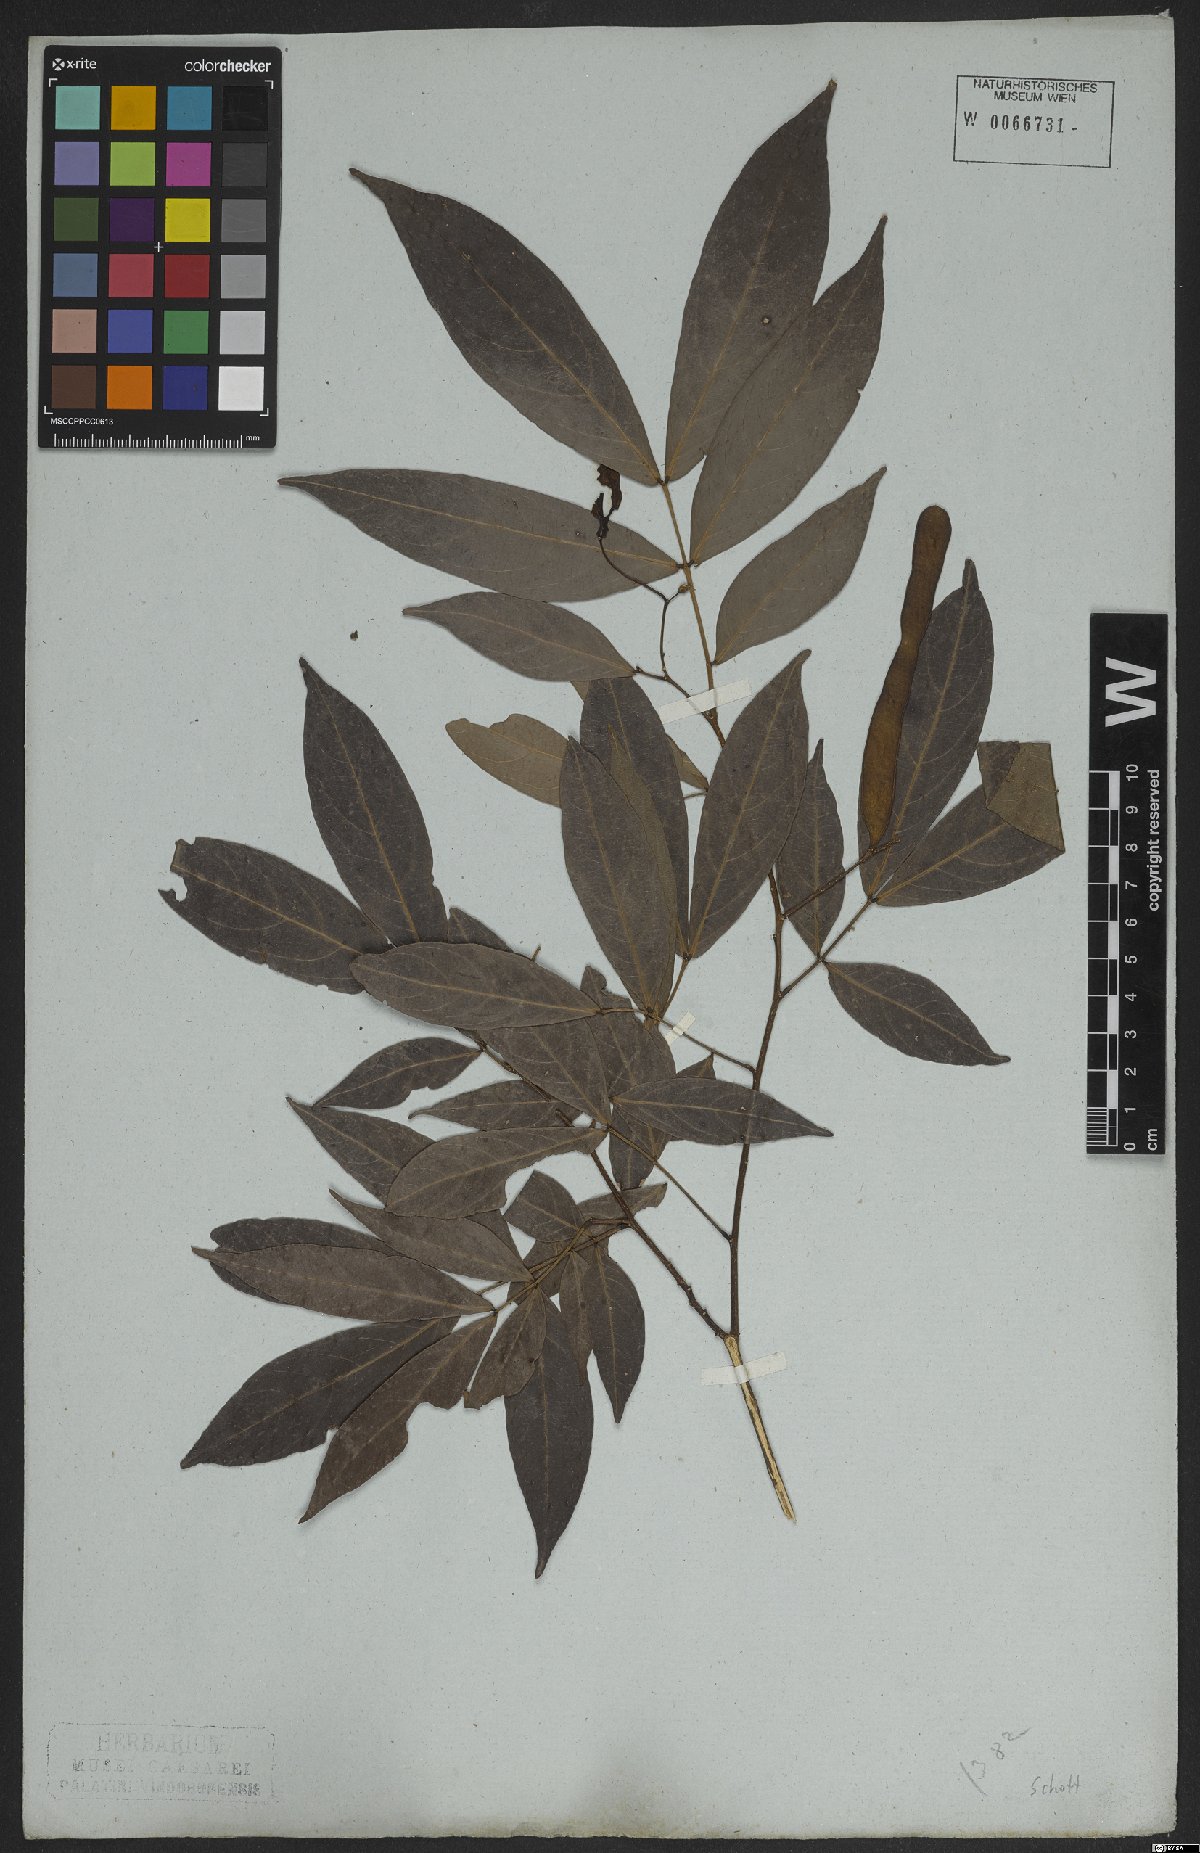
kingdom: Plantae
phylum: Tracheophyta
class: Magnoliopsida
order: Fabales
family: Fabaceae
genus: Inga
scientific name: Inga marginata
